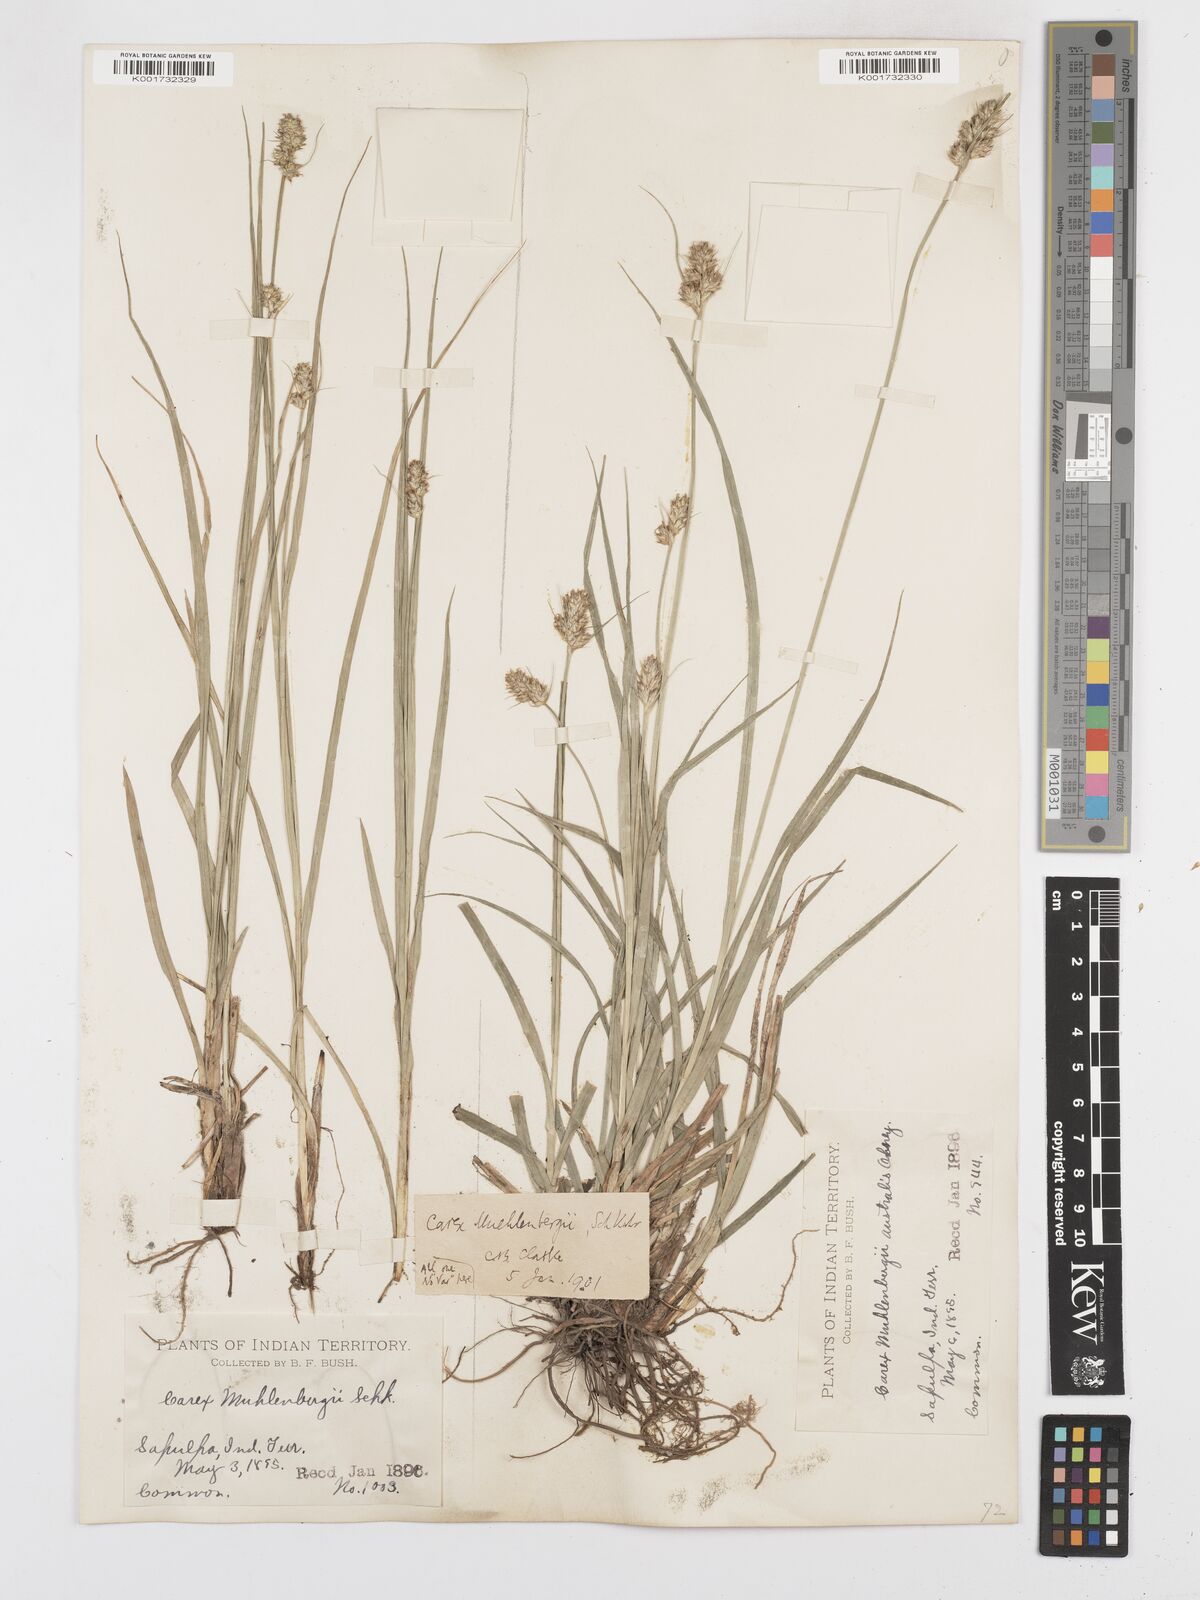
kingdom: Plantae
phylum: Tracheophyta
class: Liliopsida
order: Poales
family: Cyperaceae
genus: Carex
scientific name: Carex austrina
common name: Southern sedge
